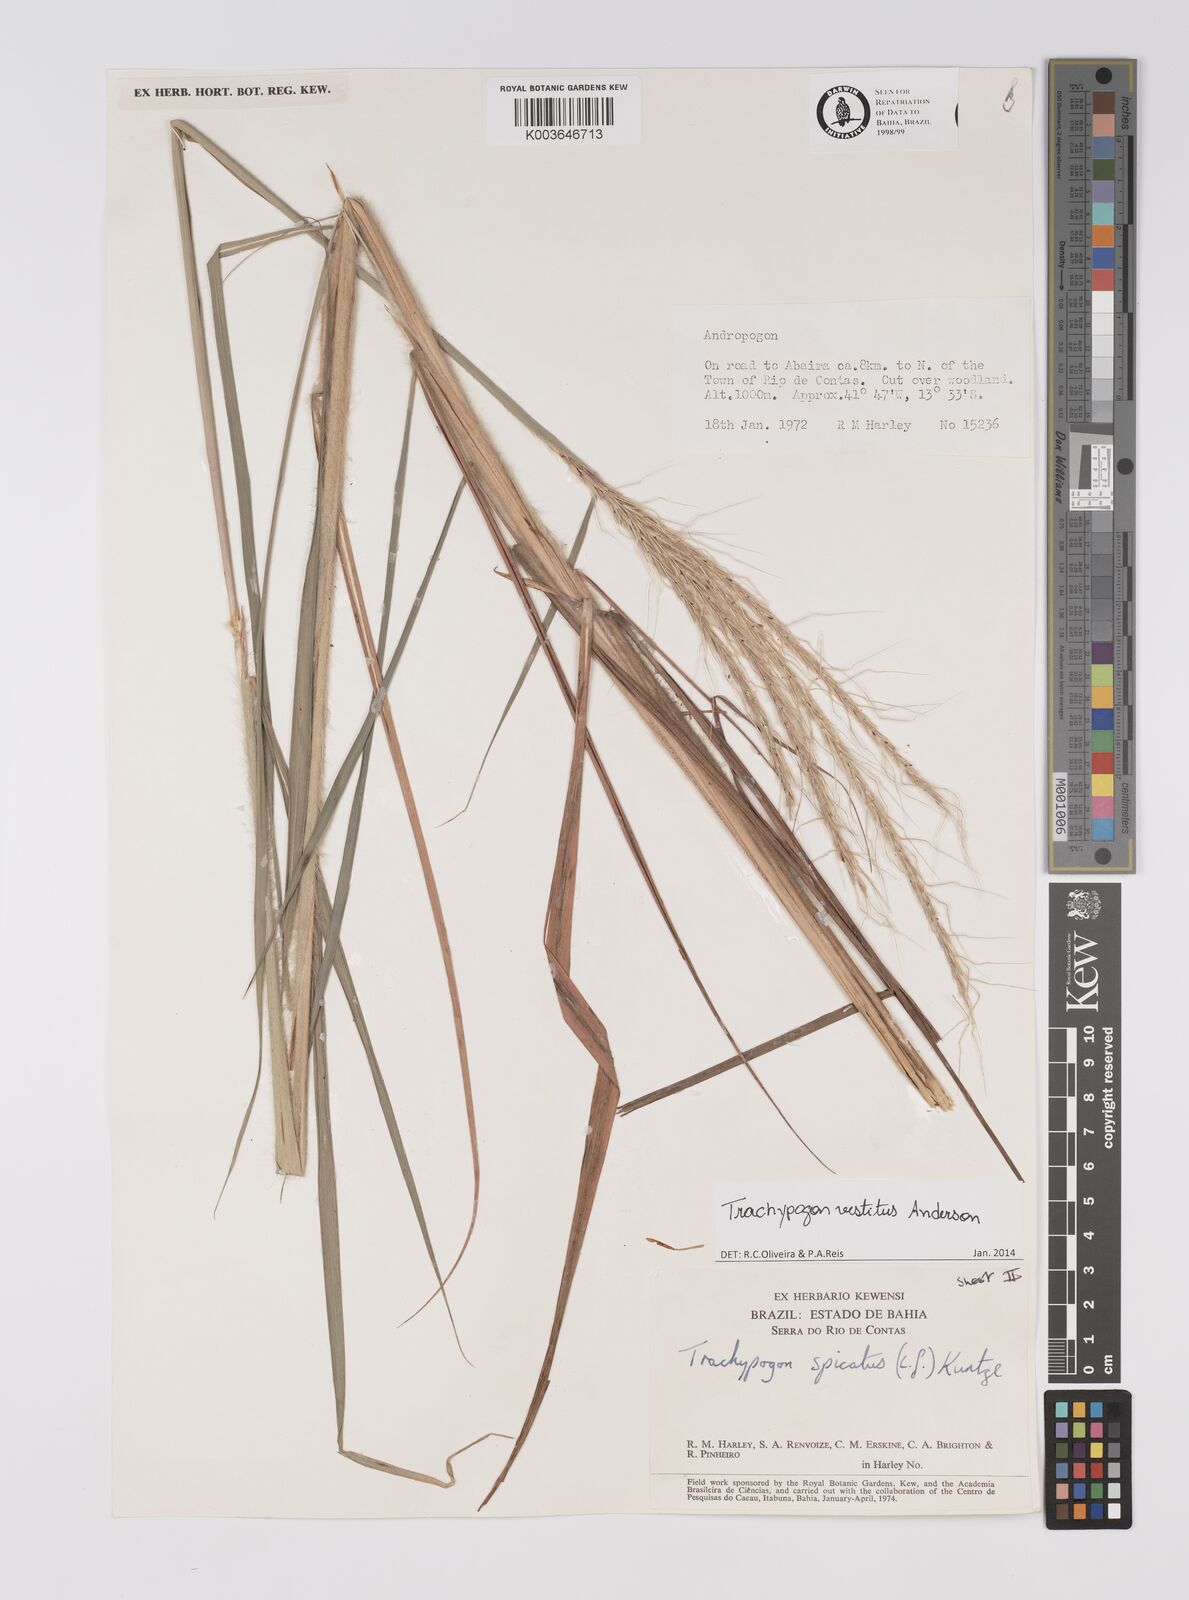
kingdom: Plantae
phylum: Tracheophyta
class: Liliopsida
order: Poales
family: Poaceae
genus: Trachypogon
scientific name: Trachypogon vestitus
